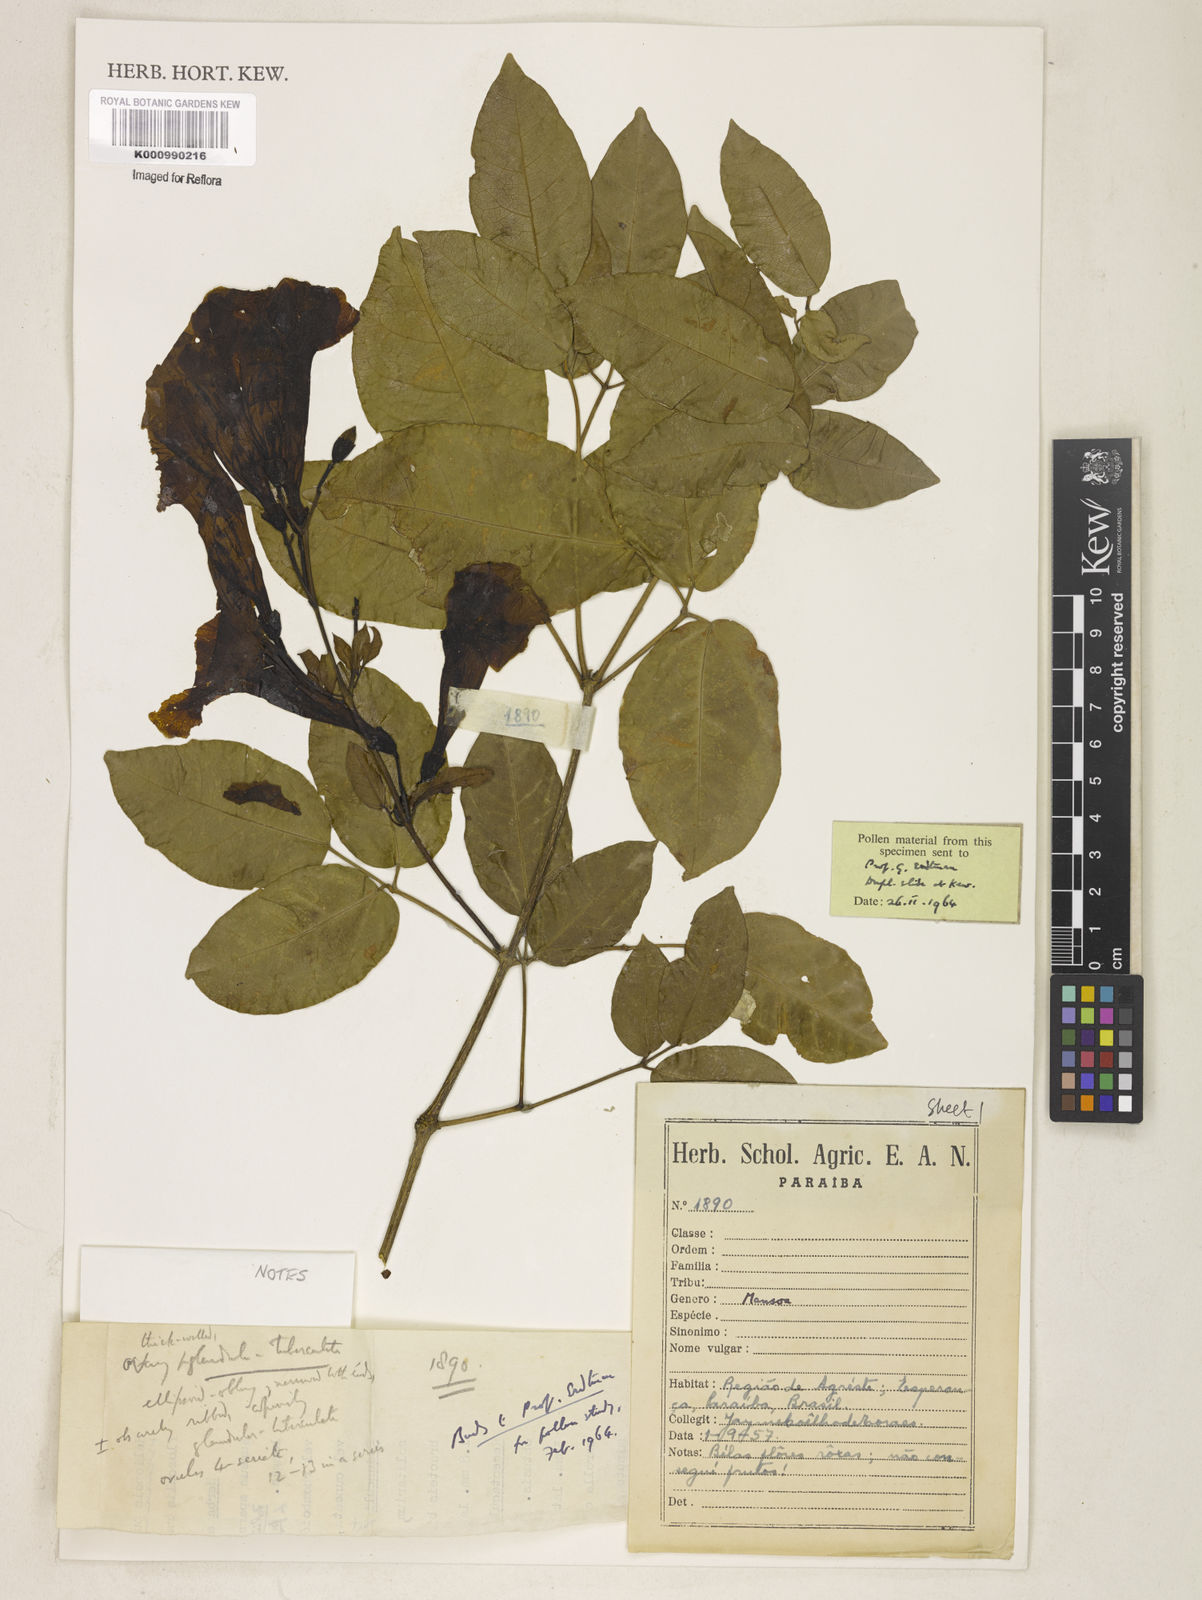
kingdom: Plantae
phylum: Tracheophyta
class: Magnoliopsida
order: Lamiales
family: Bignoniaceae
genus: Mansoa
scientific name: Mansoa
